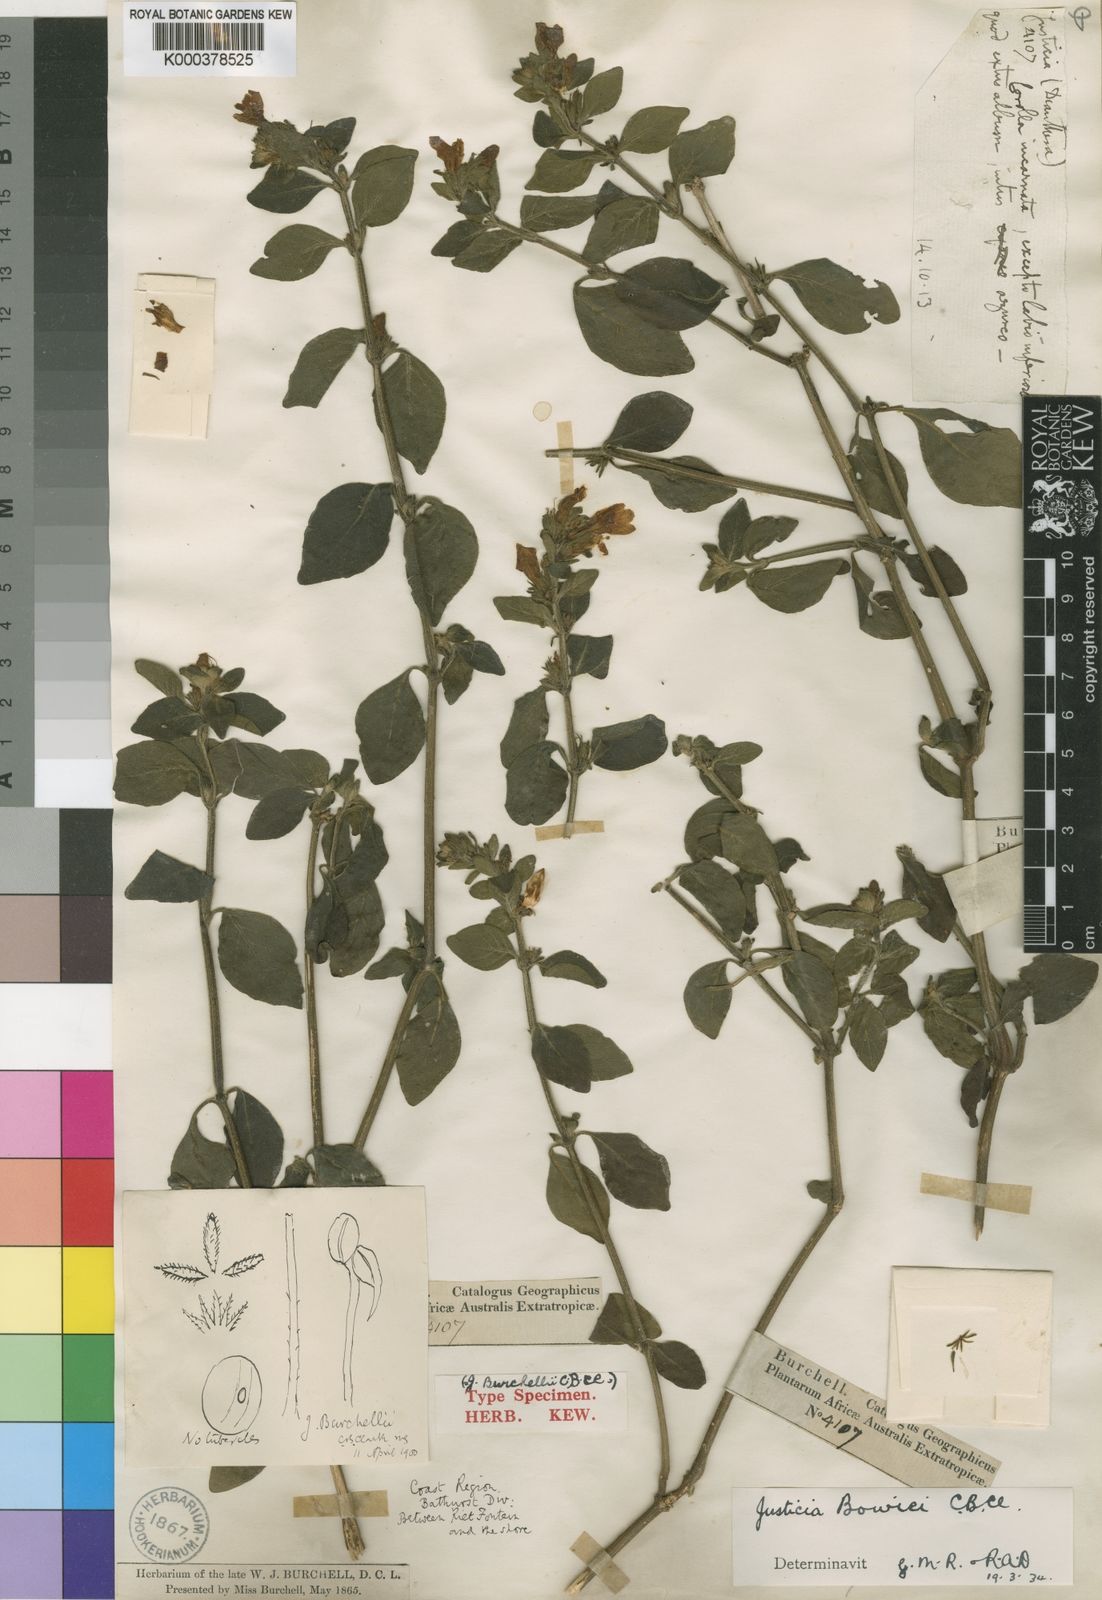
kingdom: Plantae
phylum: Tracheophyta
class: Magnoliopsida
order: Lamiales
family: Acanthaceae
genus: Justicia
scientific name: Justicia petiolaris
